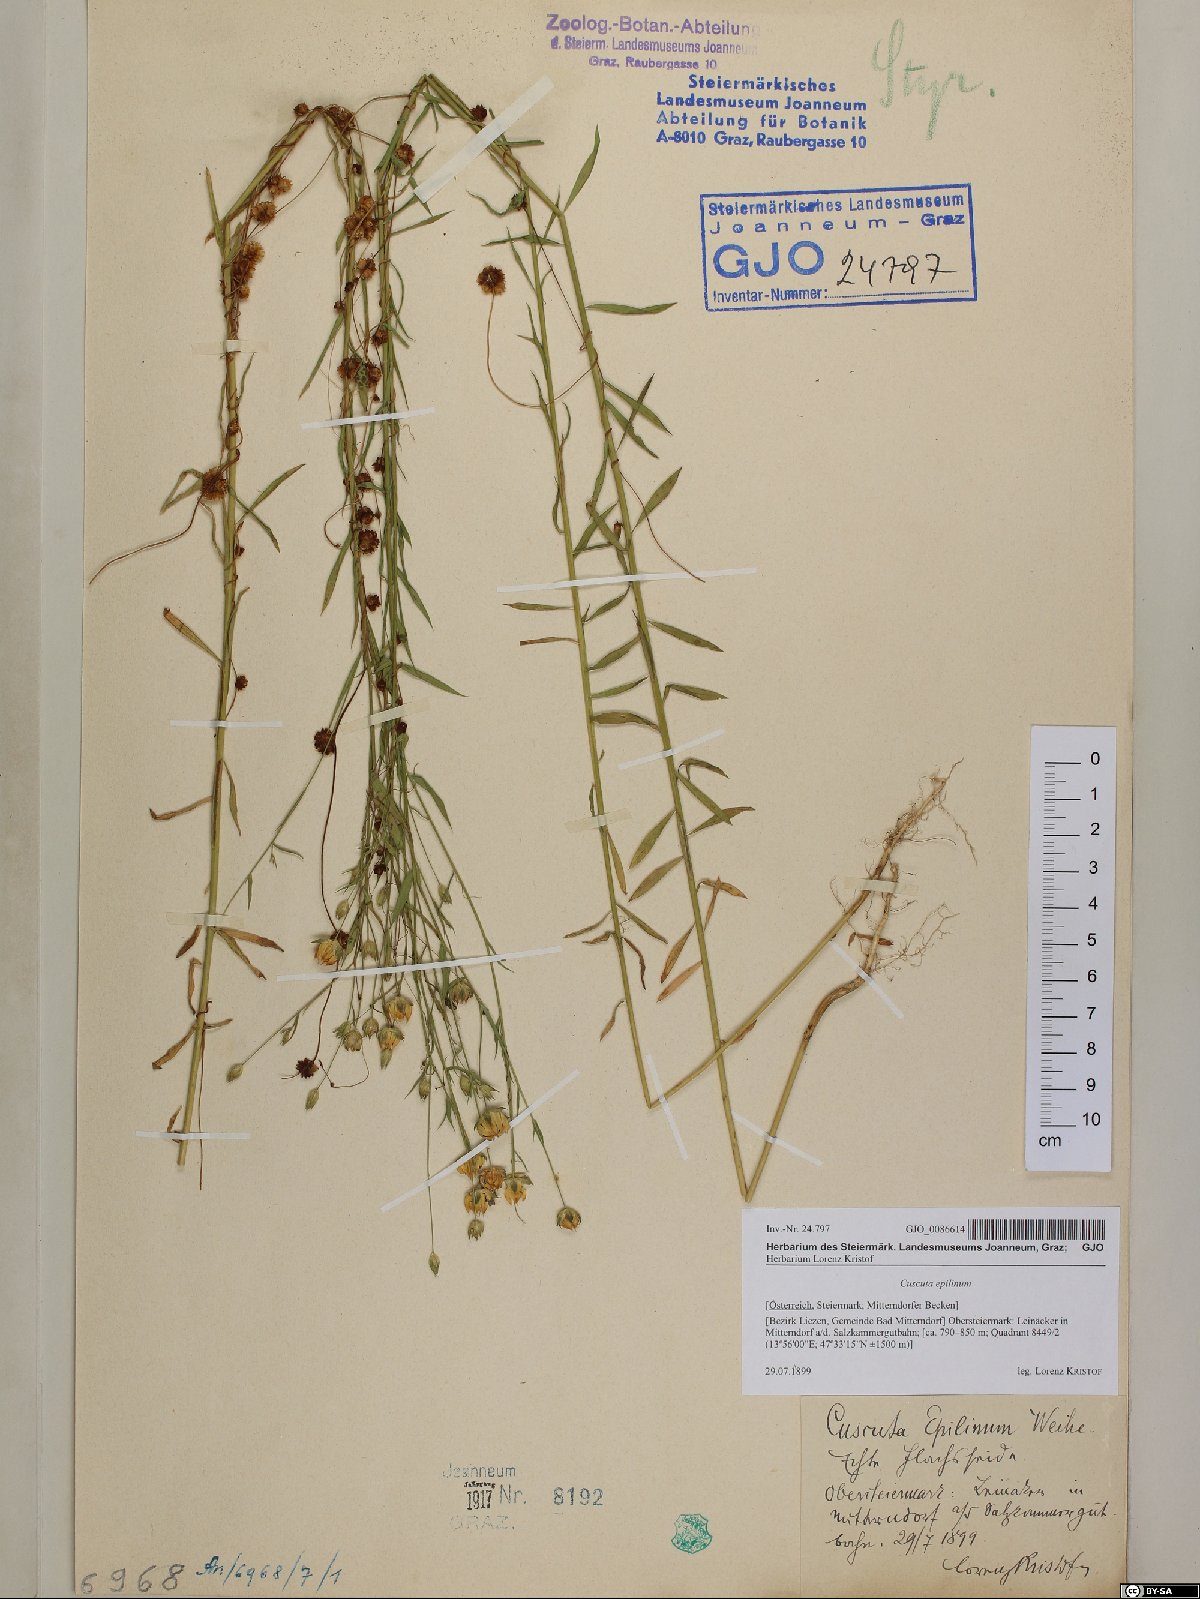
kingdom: Plantae
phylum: Tracheophyta
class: Magnoliopsida
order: Solanales
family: Convolvulaceae
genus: Cuscuta
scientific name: Cuscuta epilinum
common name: Flax dodder
